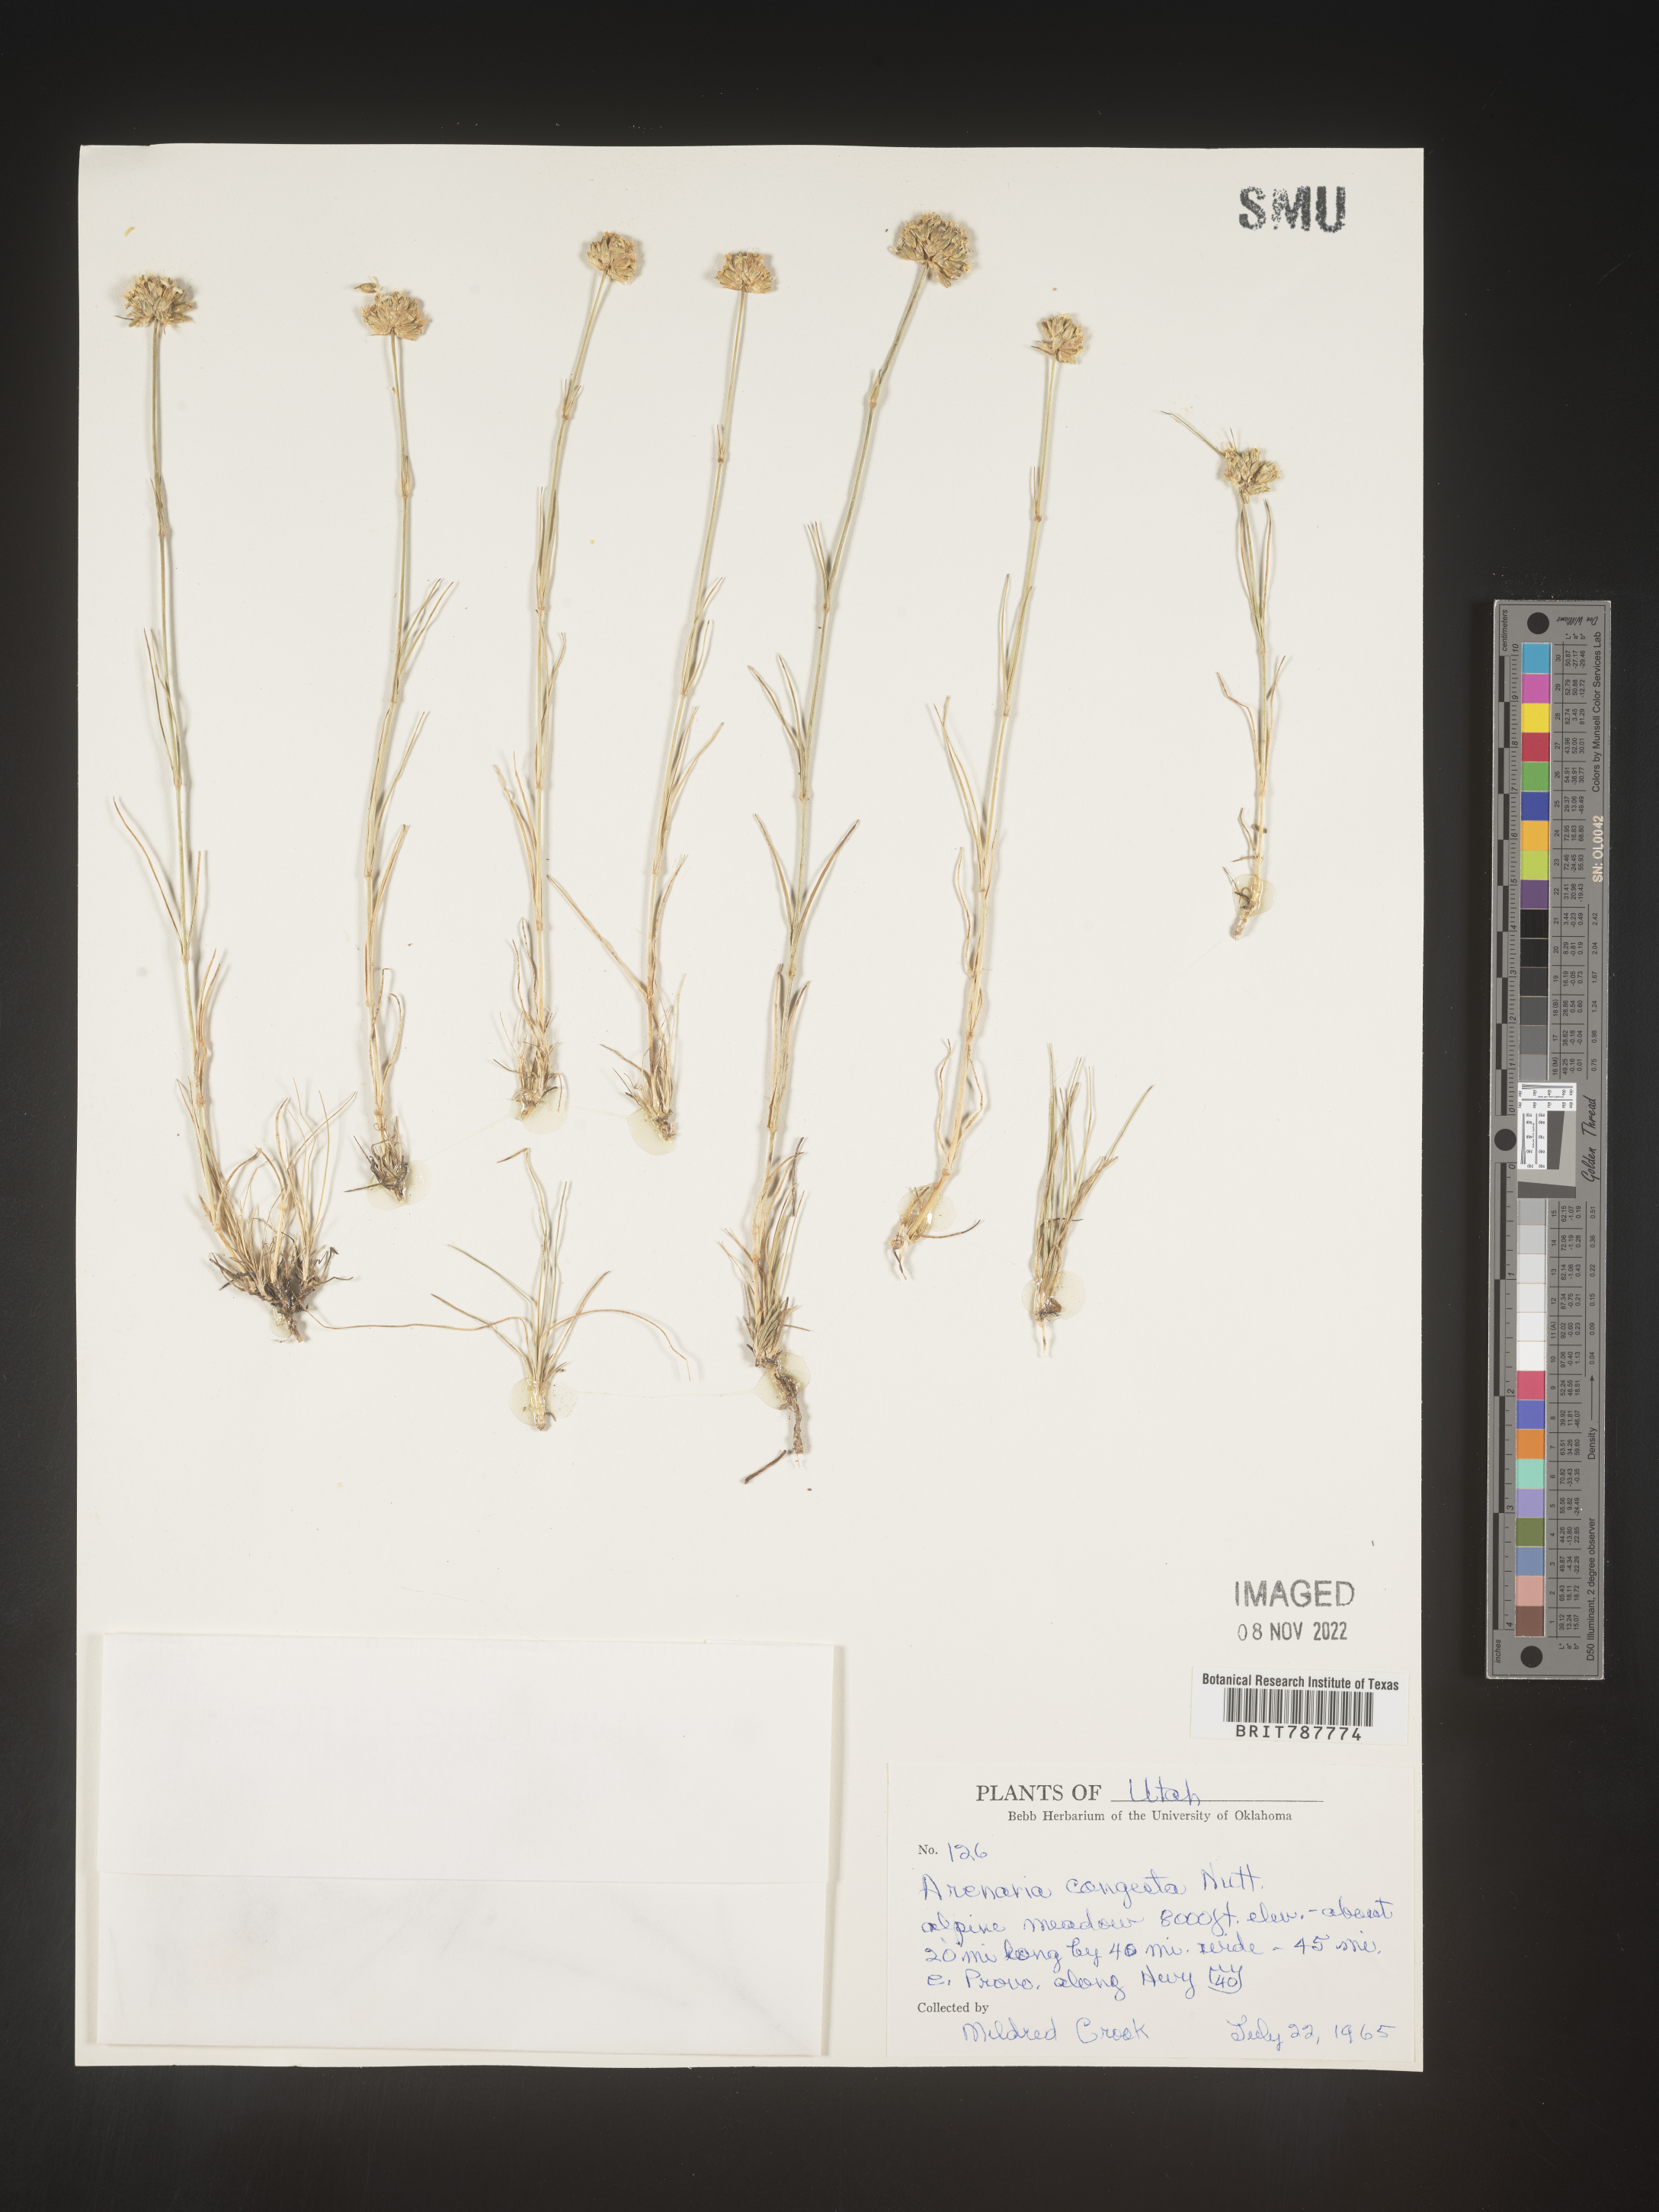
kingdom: Plantae
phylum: Tracheophyta
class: Magnoliopsida
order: Caryophyllales
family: Caryophyllaceae
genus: Eremogone
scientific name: Eremogone congesta
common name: Ballhead sandwort
